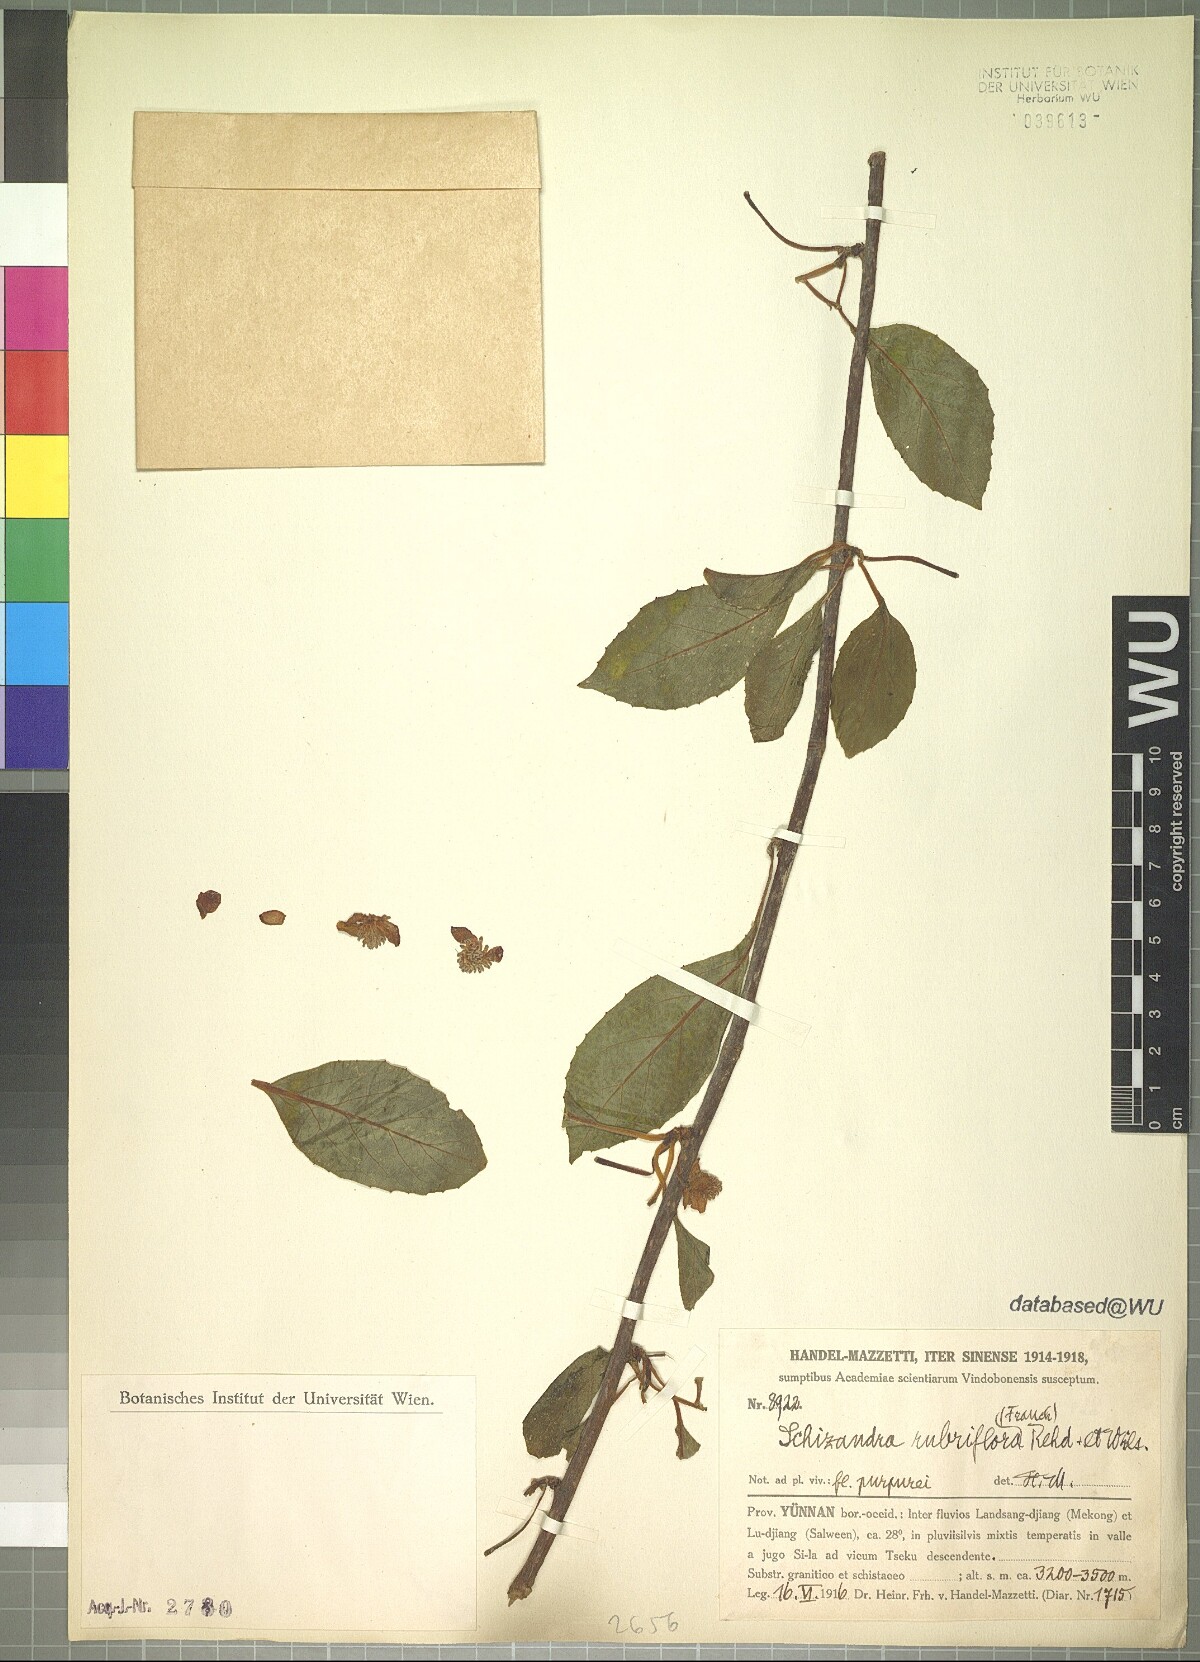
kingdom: Plantae
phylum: Tracheophyta
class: Magnoliopsida
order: Austrobaileyales
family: Schisandraceae
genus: Schisandra
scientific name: Schisandra rubriflora
